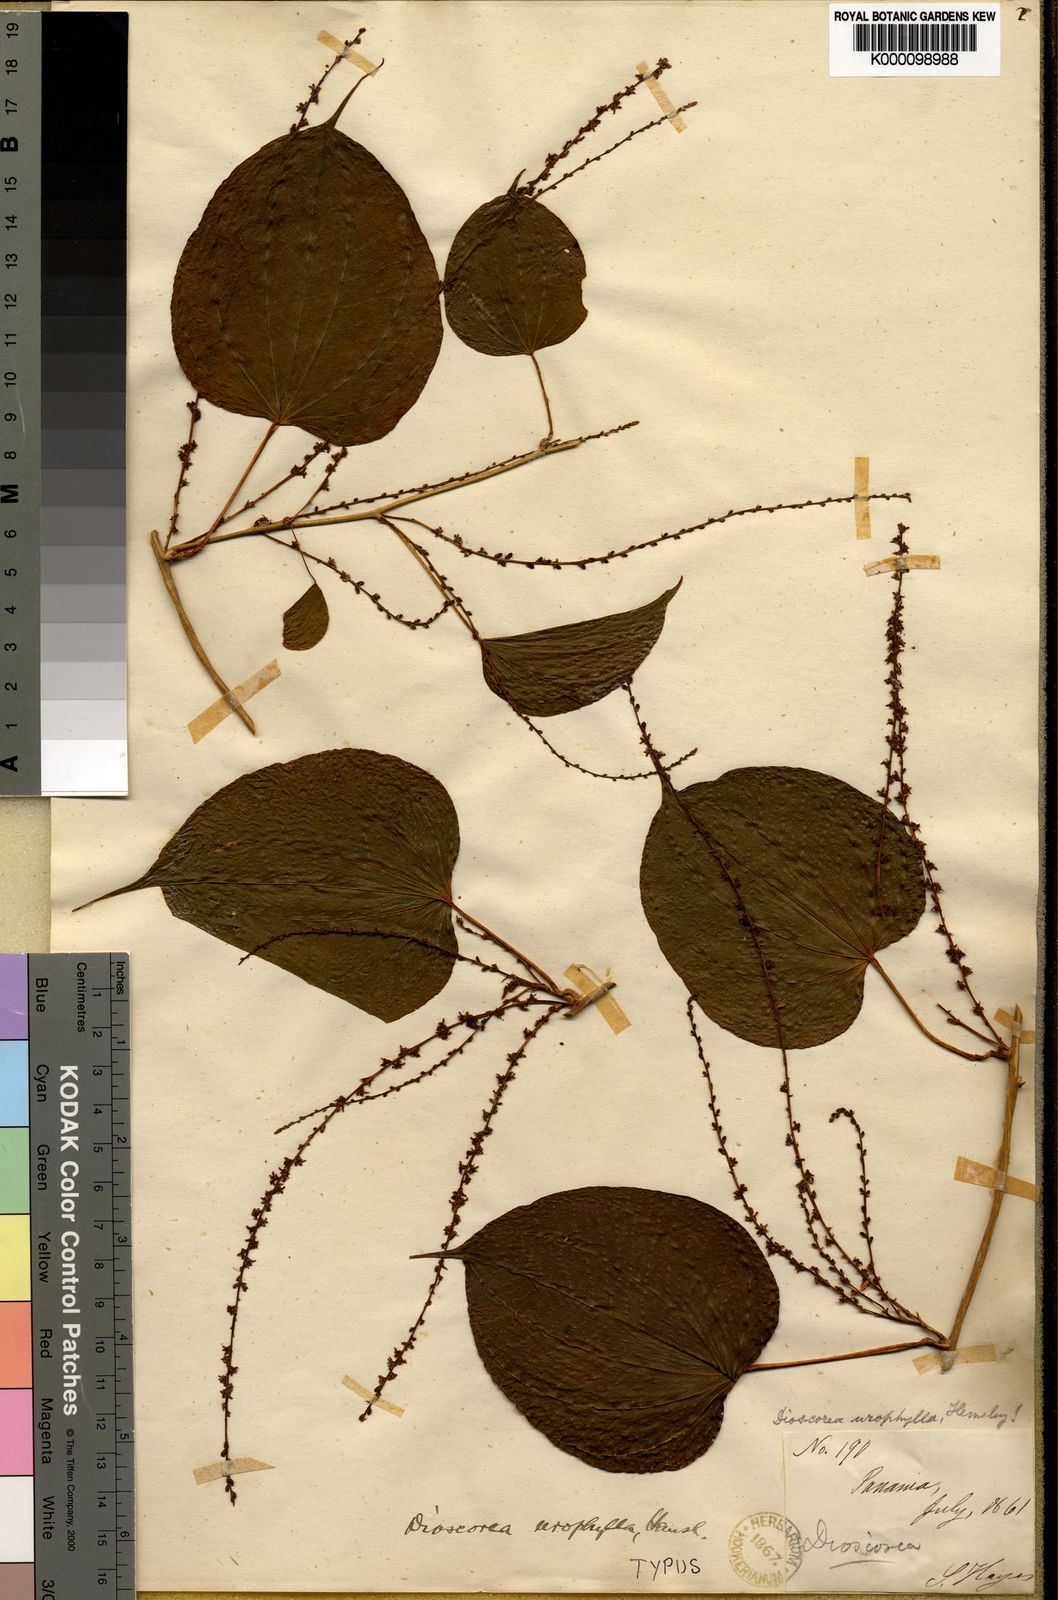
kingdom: Plantae
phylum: Tracheophyta
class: Liliopsida
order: Dioscoreales
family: Dioscoreaceae
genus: Dioscorea
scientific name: Dioscorea urophylla
